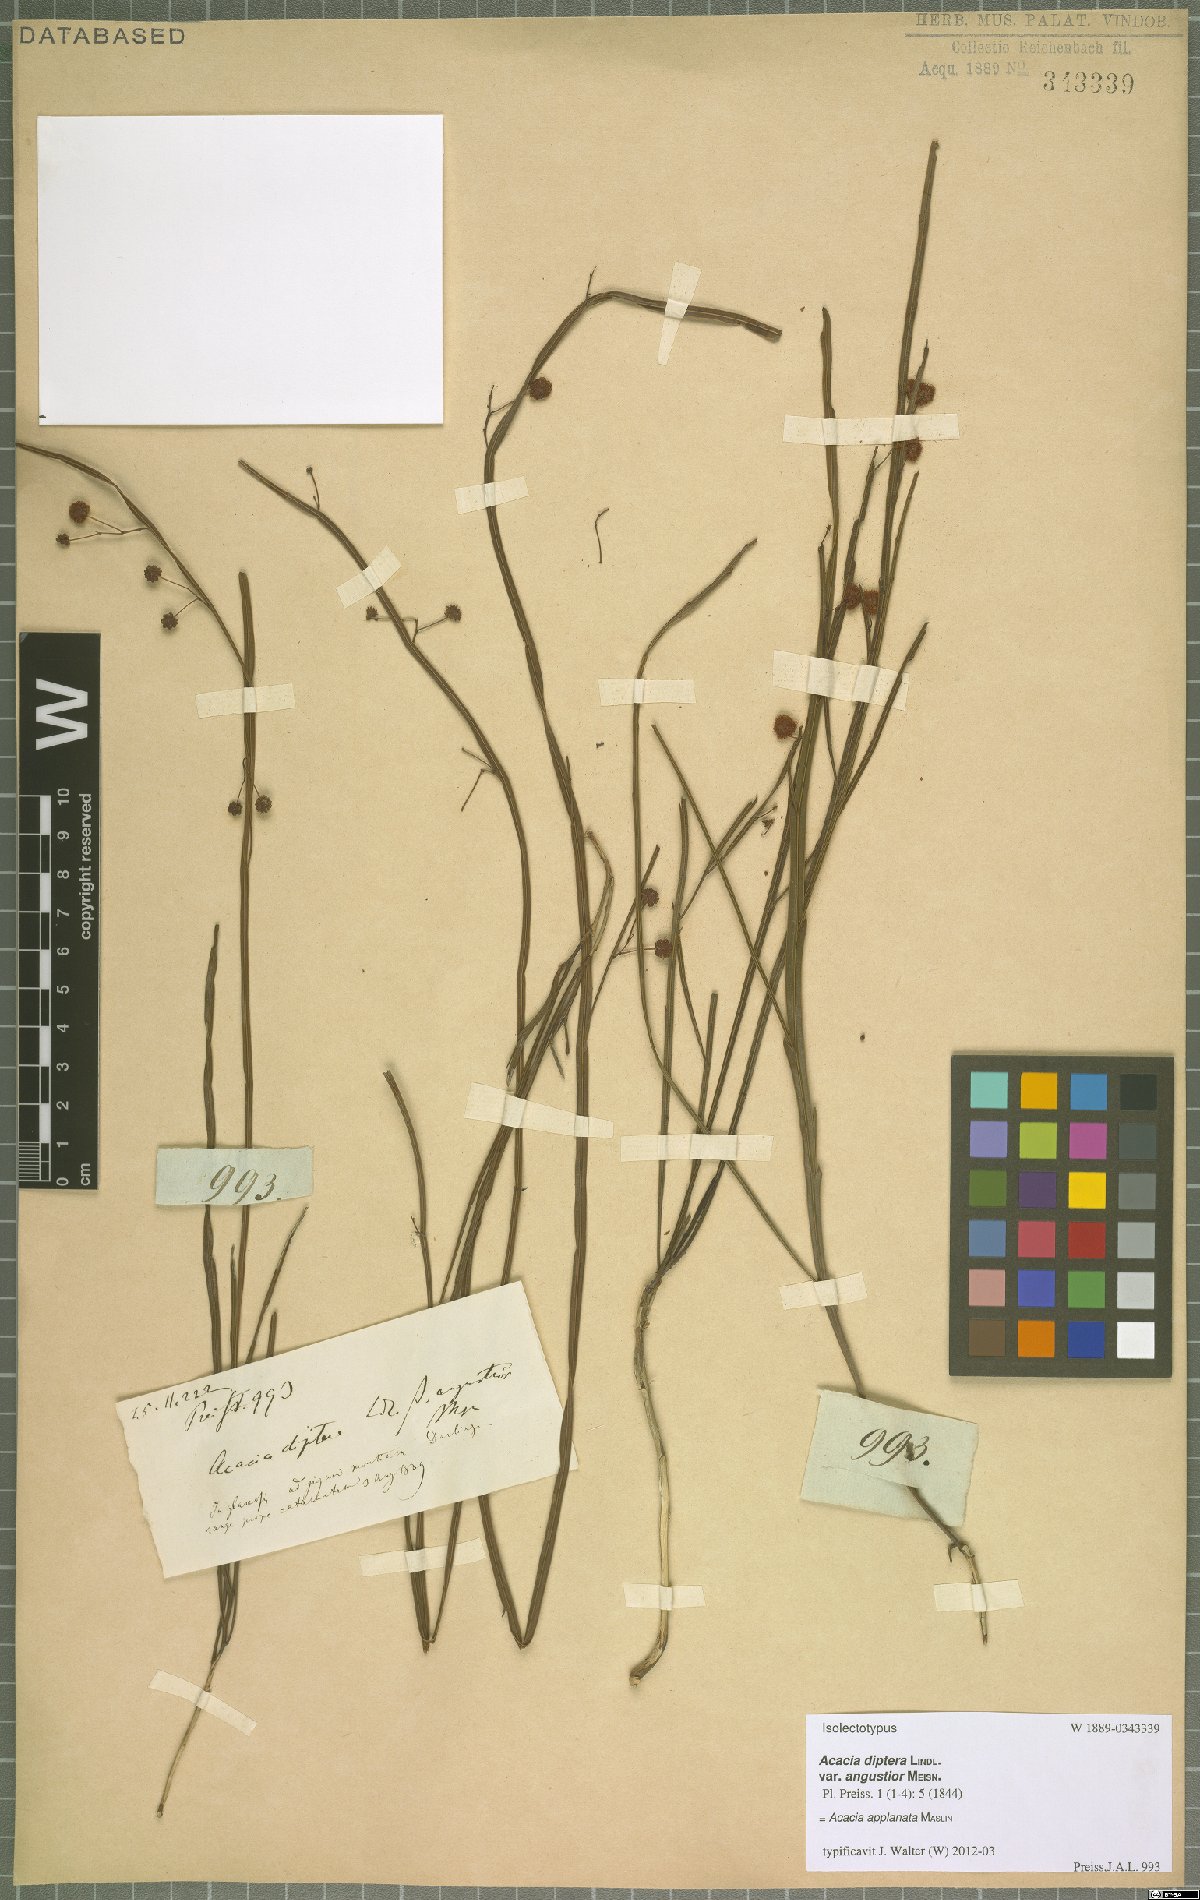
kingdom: Plantae
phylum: Tracheophyta
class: Magnoliopsida
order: Fabales
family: Fabaceae
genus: Acacia
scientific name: Acacia applanata
